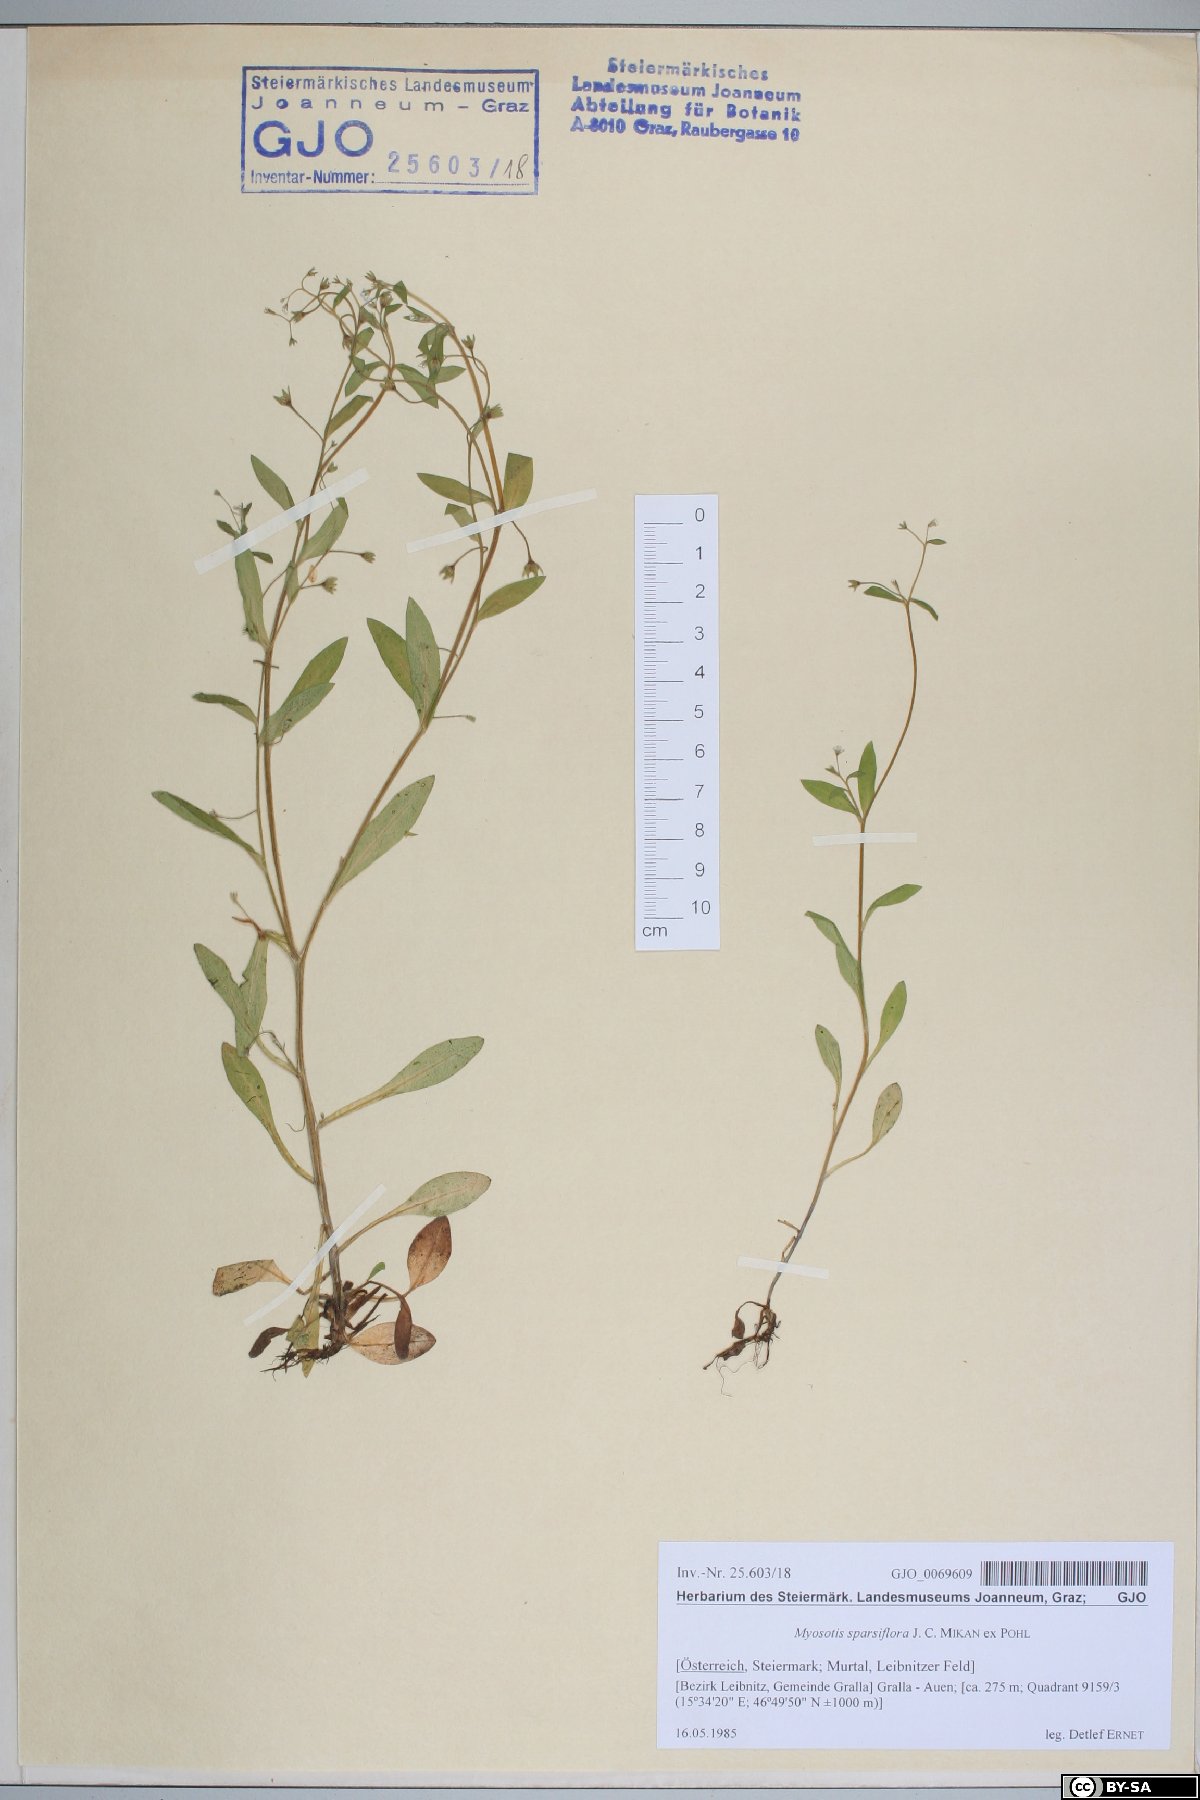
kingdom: Plantae
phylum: Tracheophyta
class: Magnoliopsida
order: Boraginales
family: Boraginaceae
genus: Myosotis
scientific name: Myosotis sparsiflora
